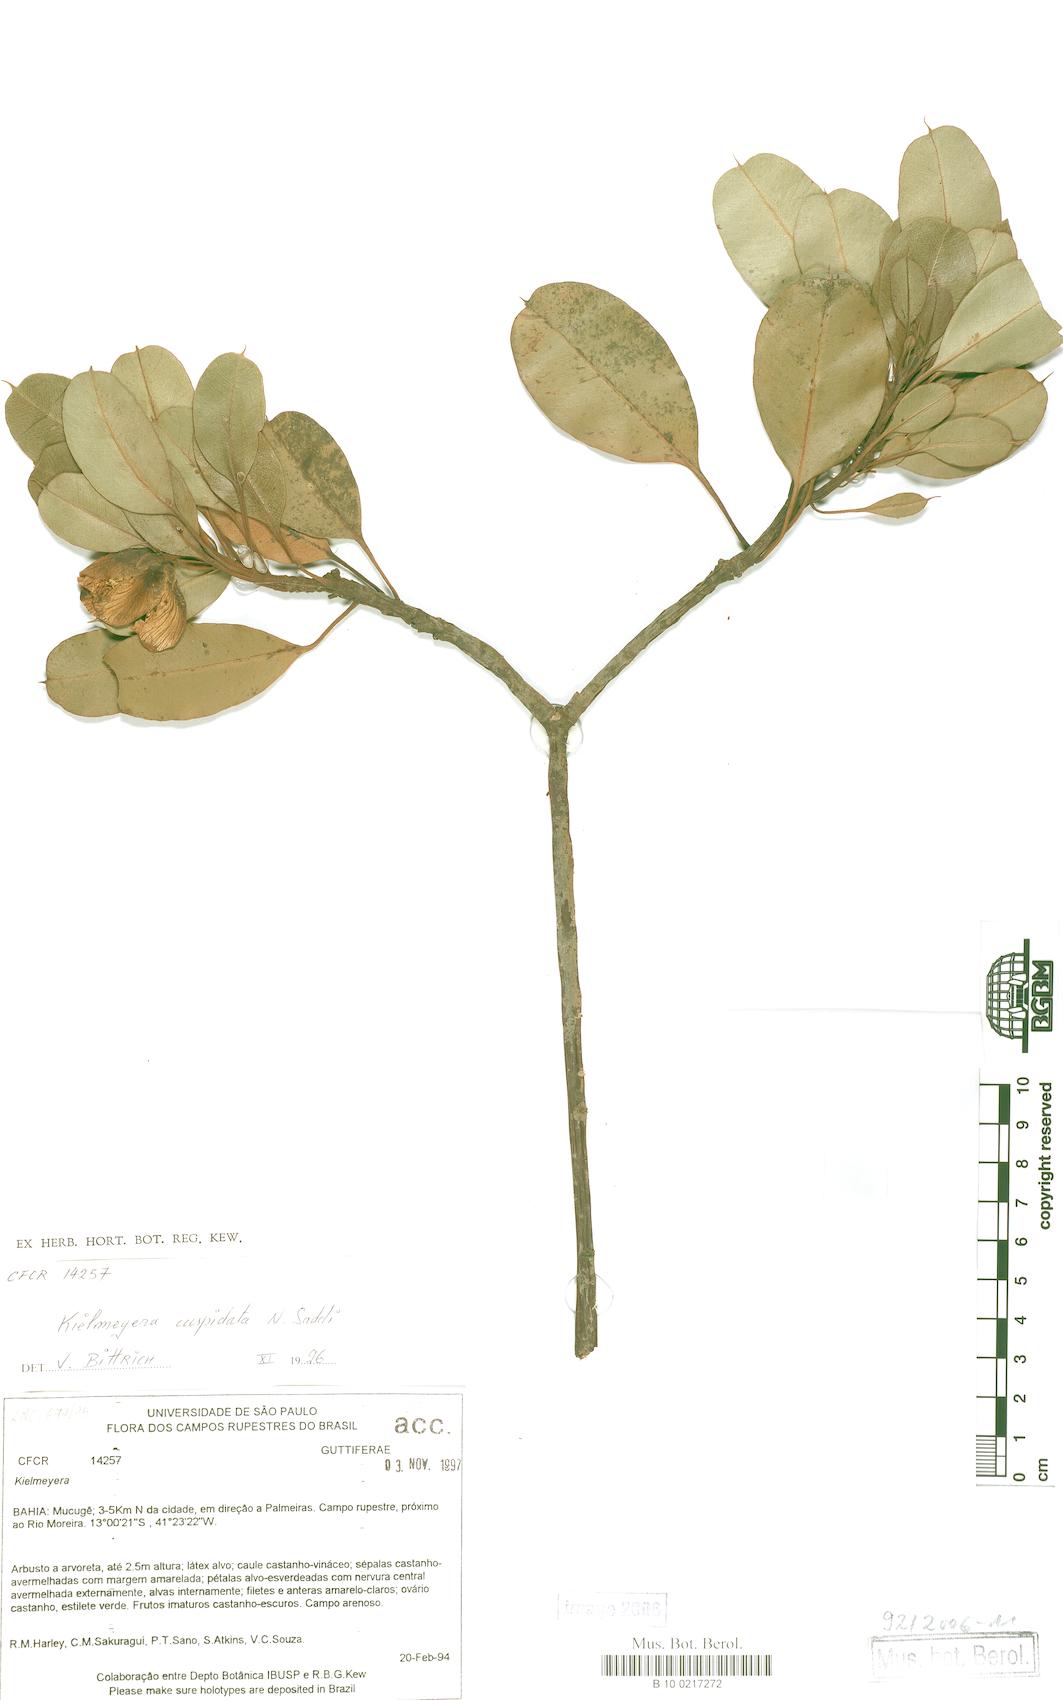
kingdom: Plantae
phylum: Tracheophyta
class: Magnoliopsida
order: Malpighiales
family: Calophyllaceae
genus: Kielmeyera
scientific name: Kielmeyera cuspidata
